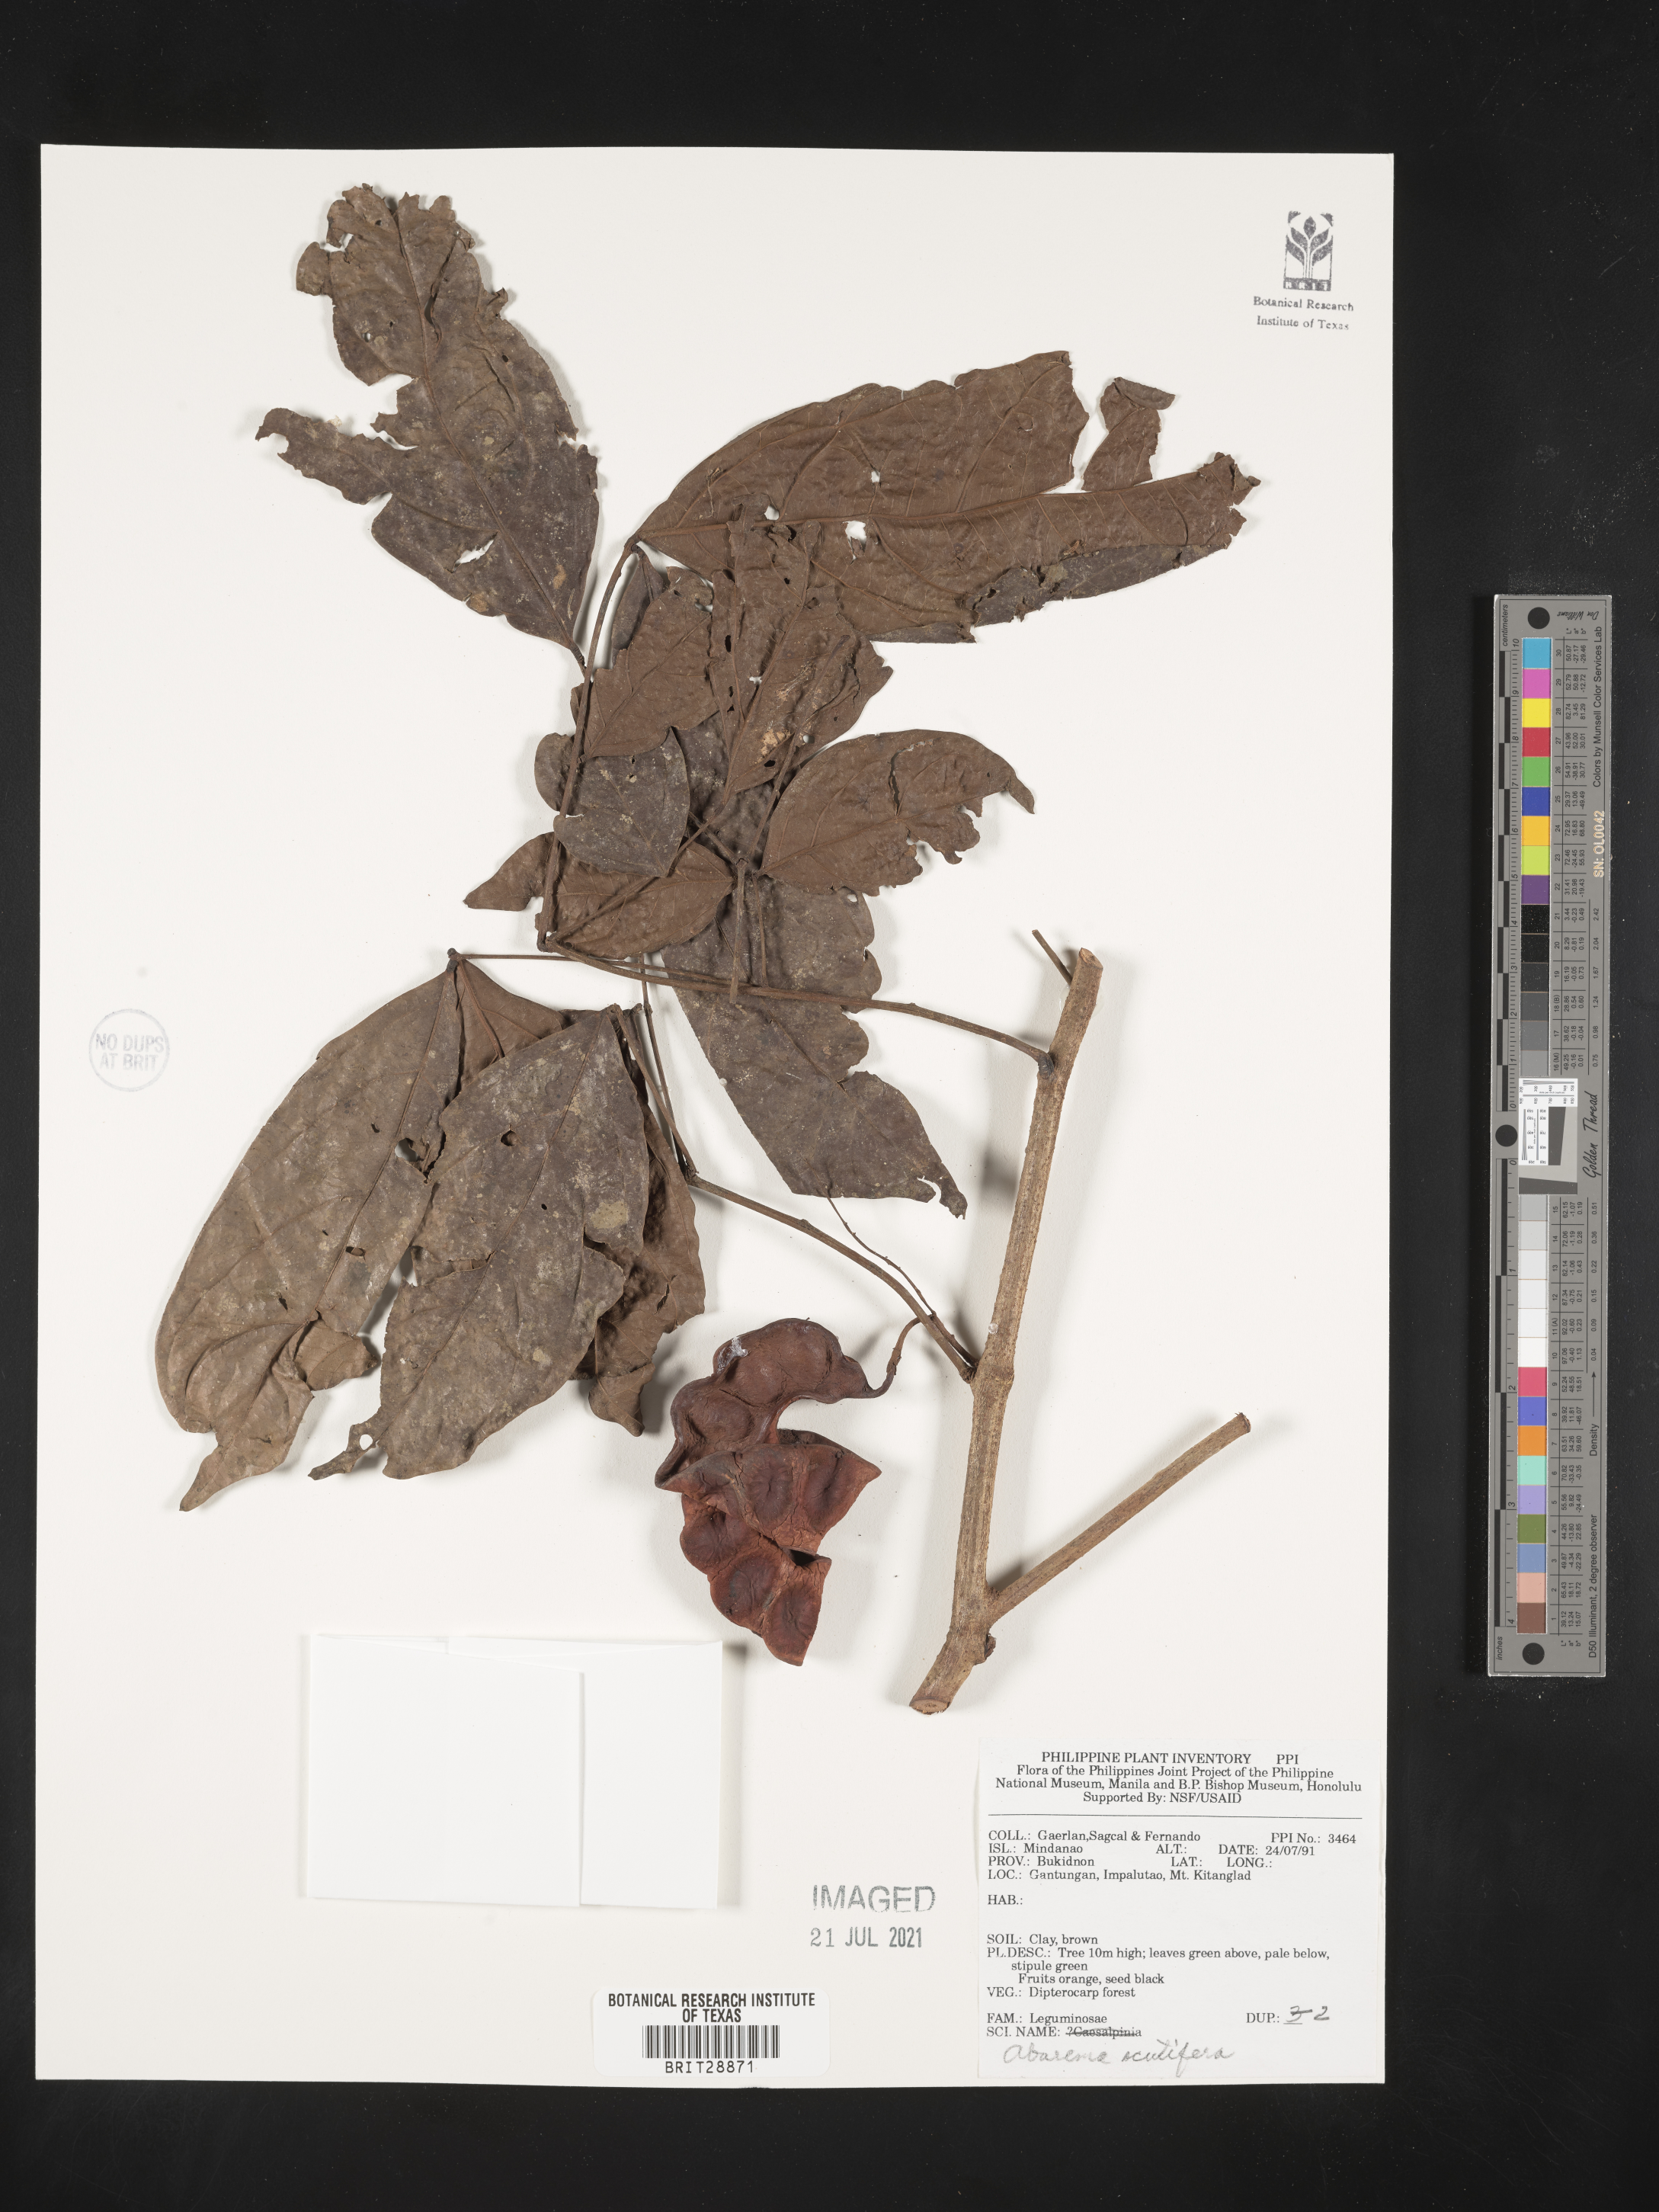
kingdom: Plantae
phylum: Tracheophyta
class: Magnoliopsida
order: Fabales
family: Fabaceae
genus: Archidendron
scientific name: Archidendron scutiferum
